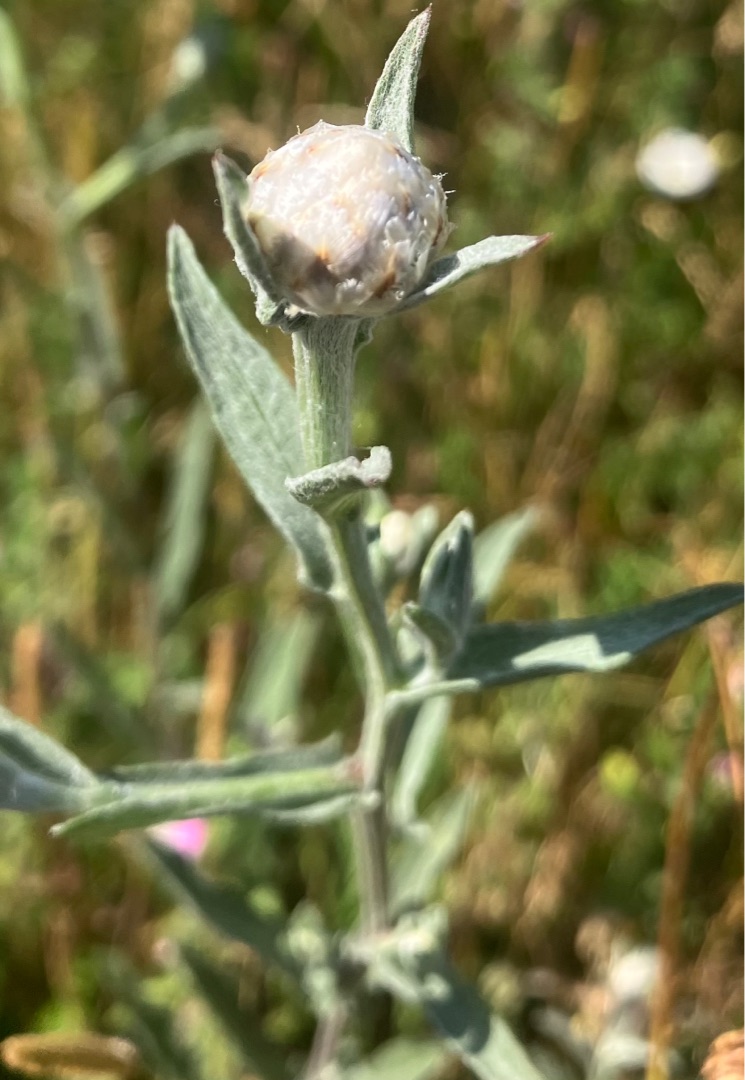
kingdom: Plantae
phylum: Tracheophyta
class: Magnoliopsida
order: Asterales
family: Asteraceae
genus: Centaurea
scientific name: Centaurea jacea
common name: Almindelig knopurt
